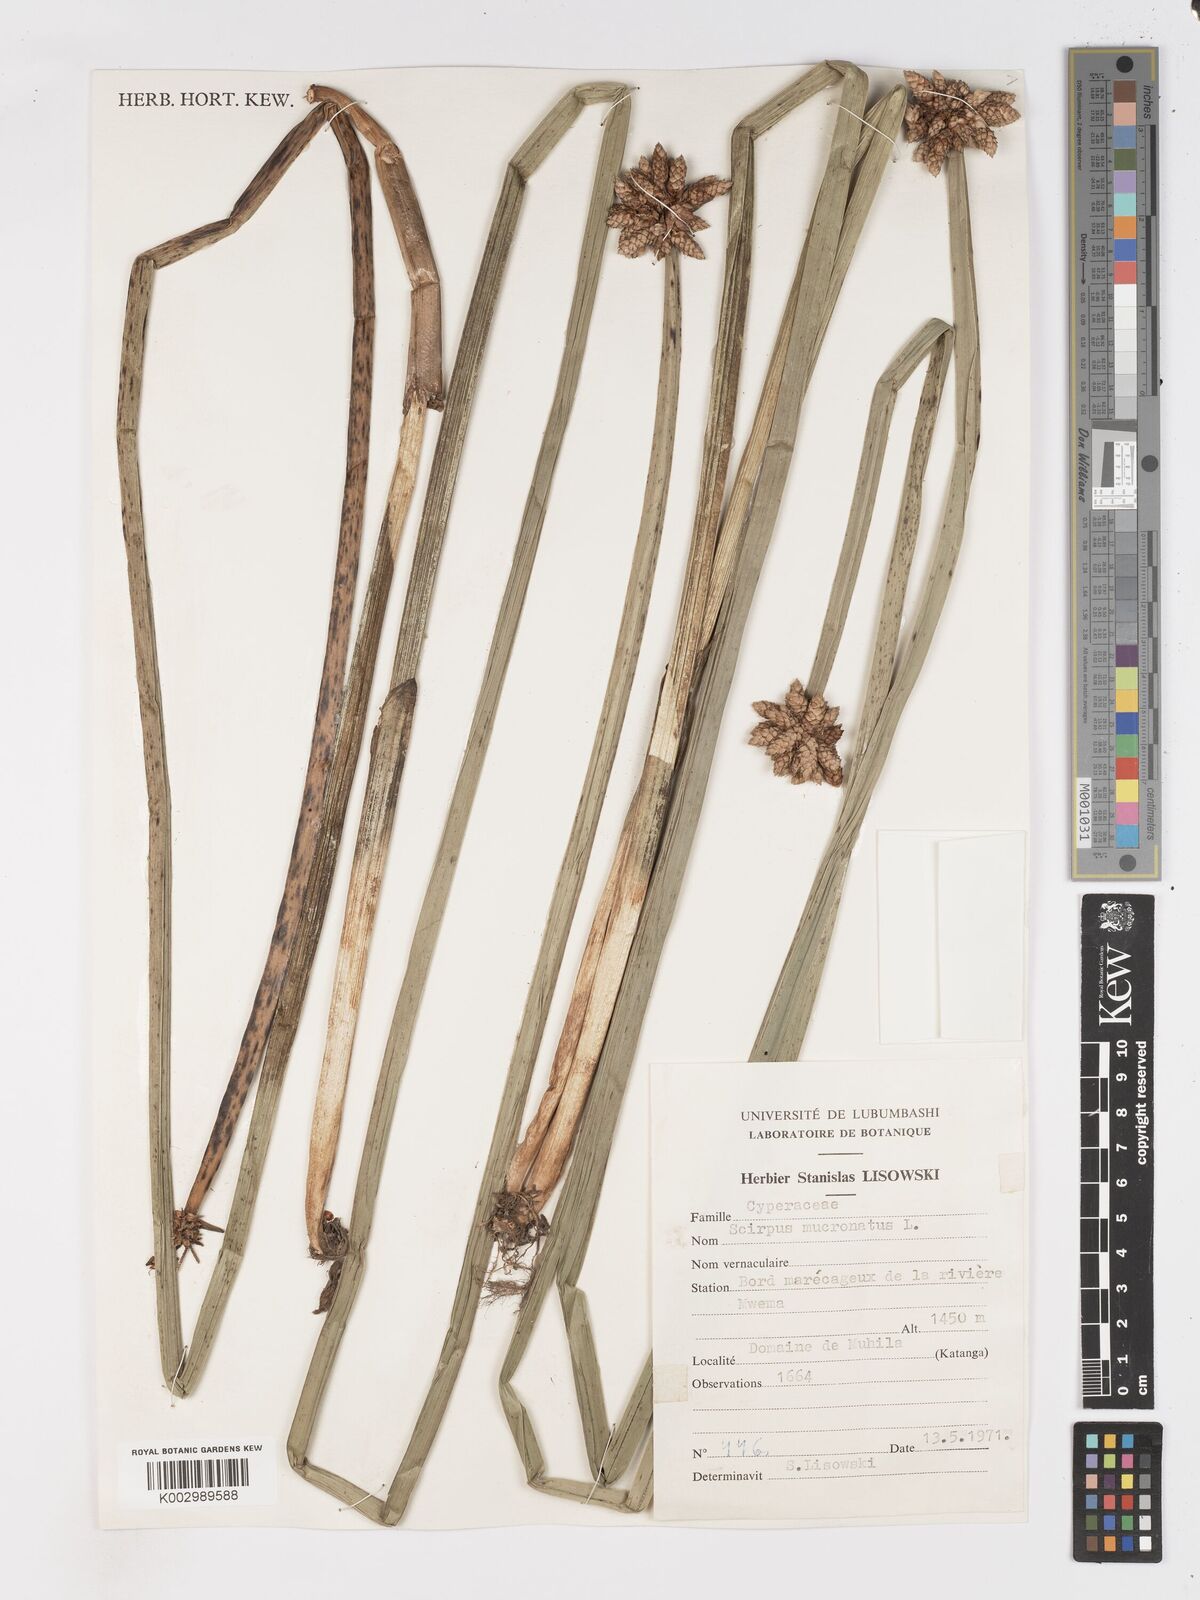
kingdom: Plantae
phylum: Tracheophyta
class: Liliopsida
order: Poales
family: Cyperaceae
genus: Schoenoplectiella
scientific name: Schoenoplectiella mucronata
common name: Bog bulrush
